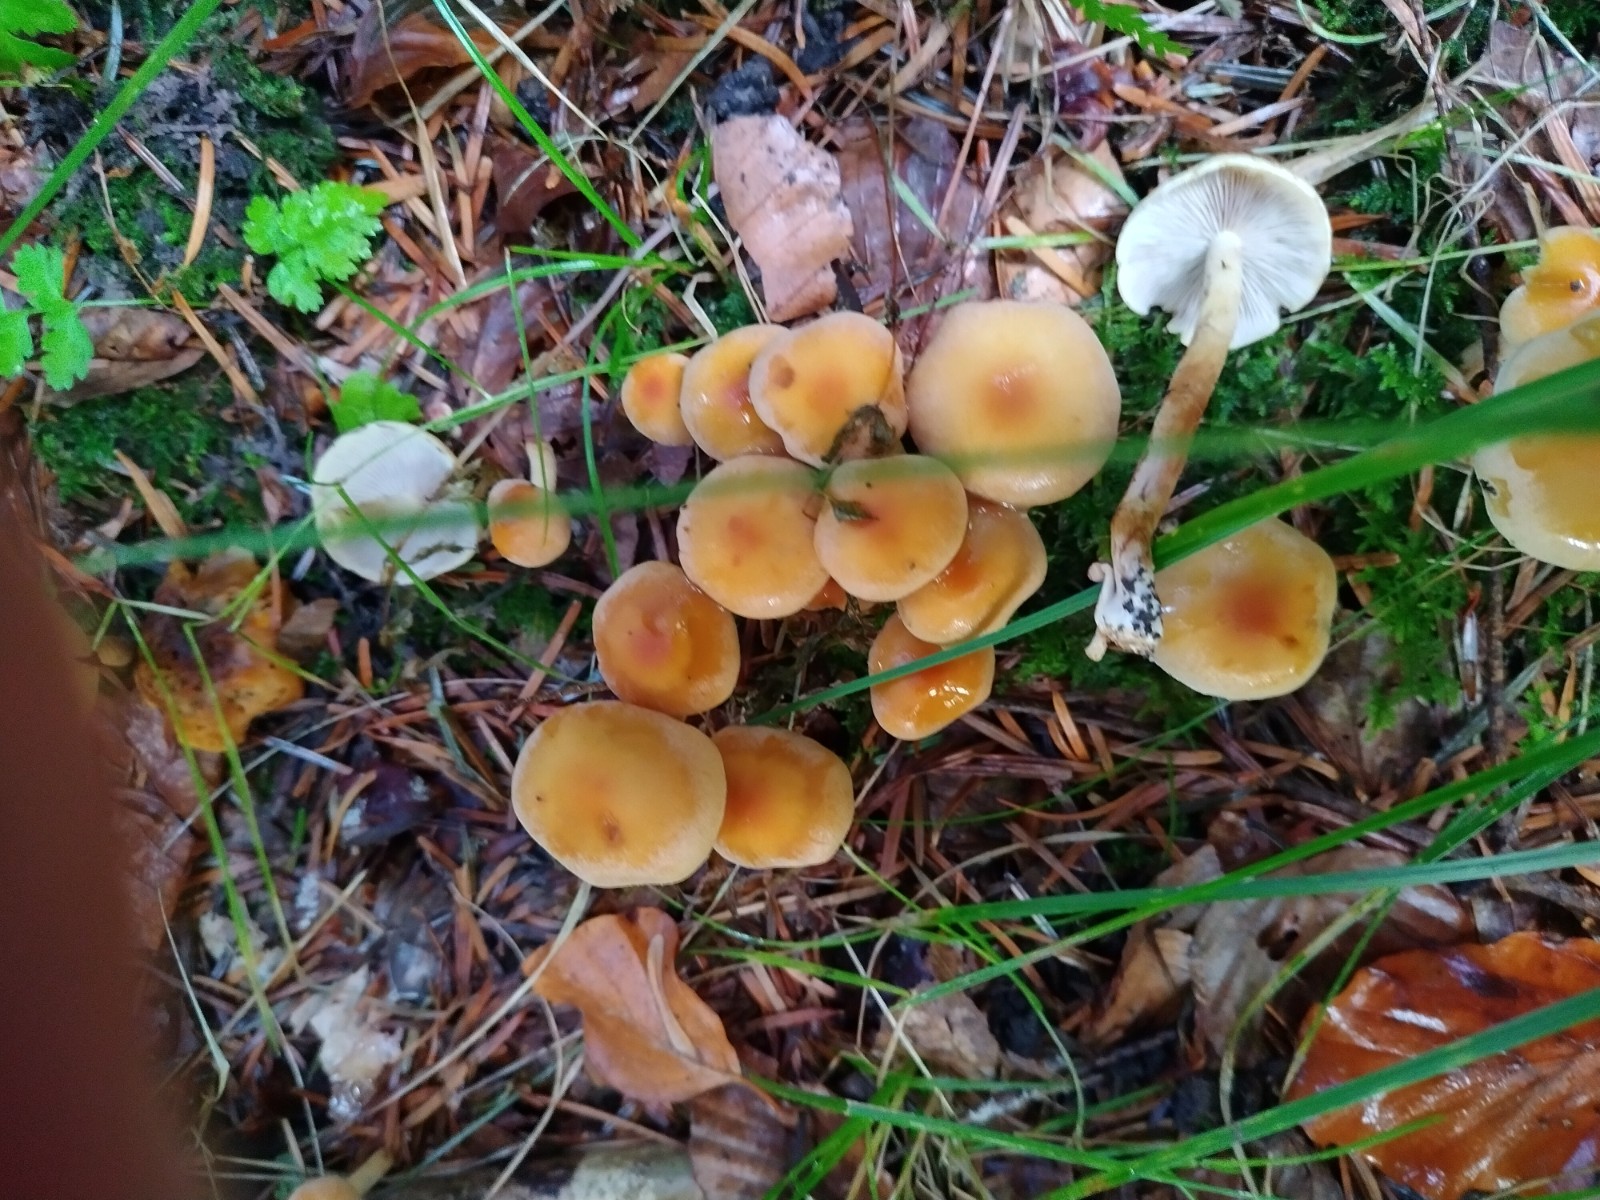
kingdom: Fungi
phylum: Basidiomycota
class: Agaricomycetes
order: Agaricales
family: Strophariaceae
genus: Hypholoma
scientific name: Hypholoma capnoides
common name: gran-svovlhat
